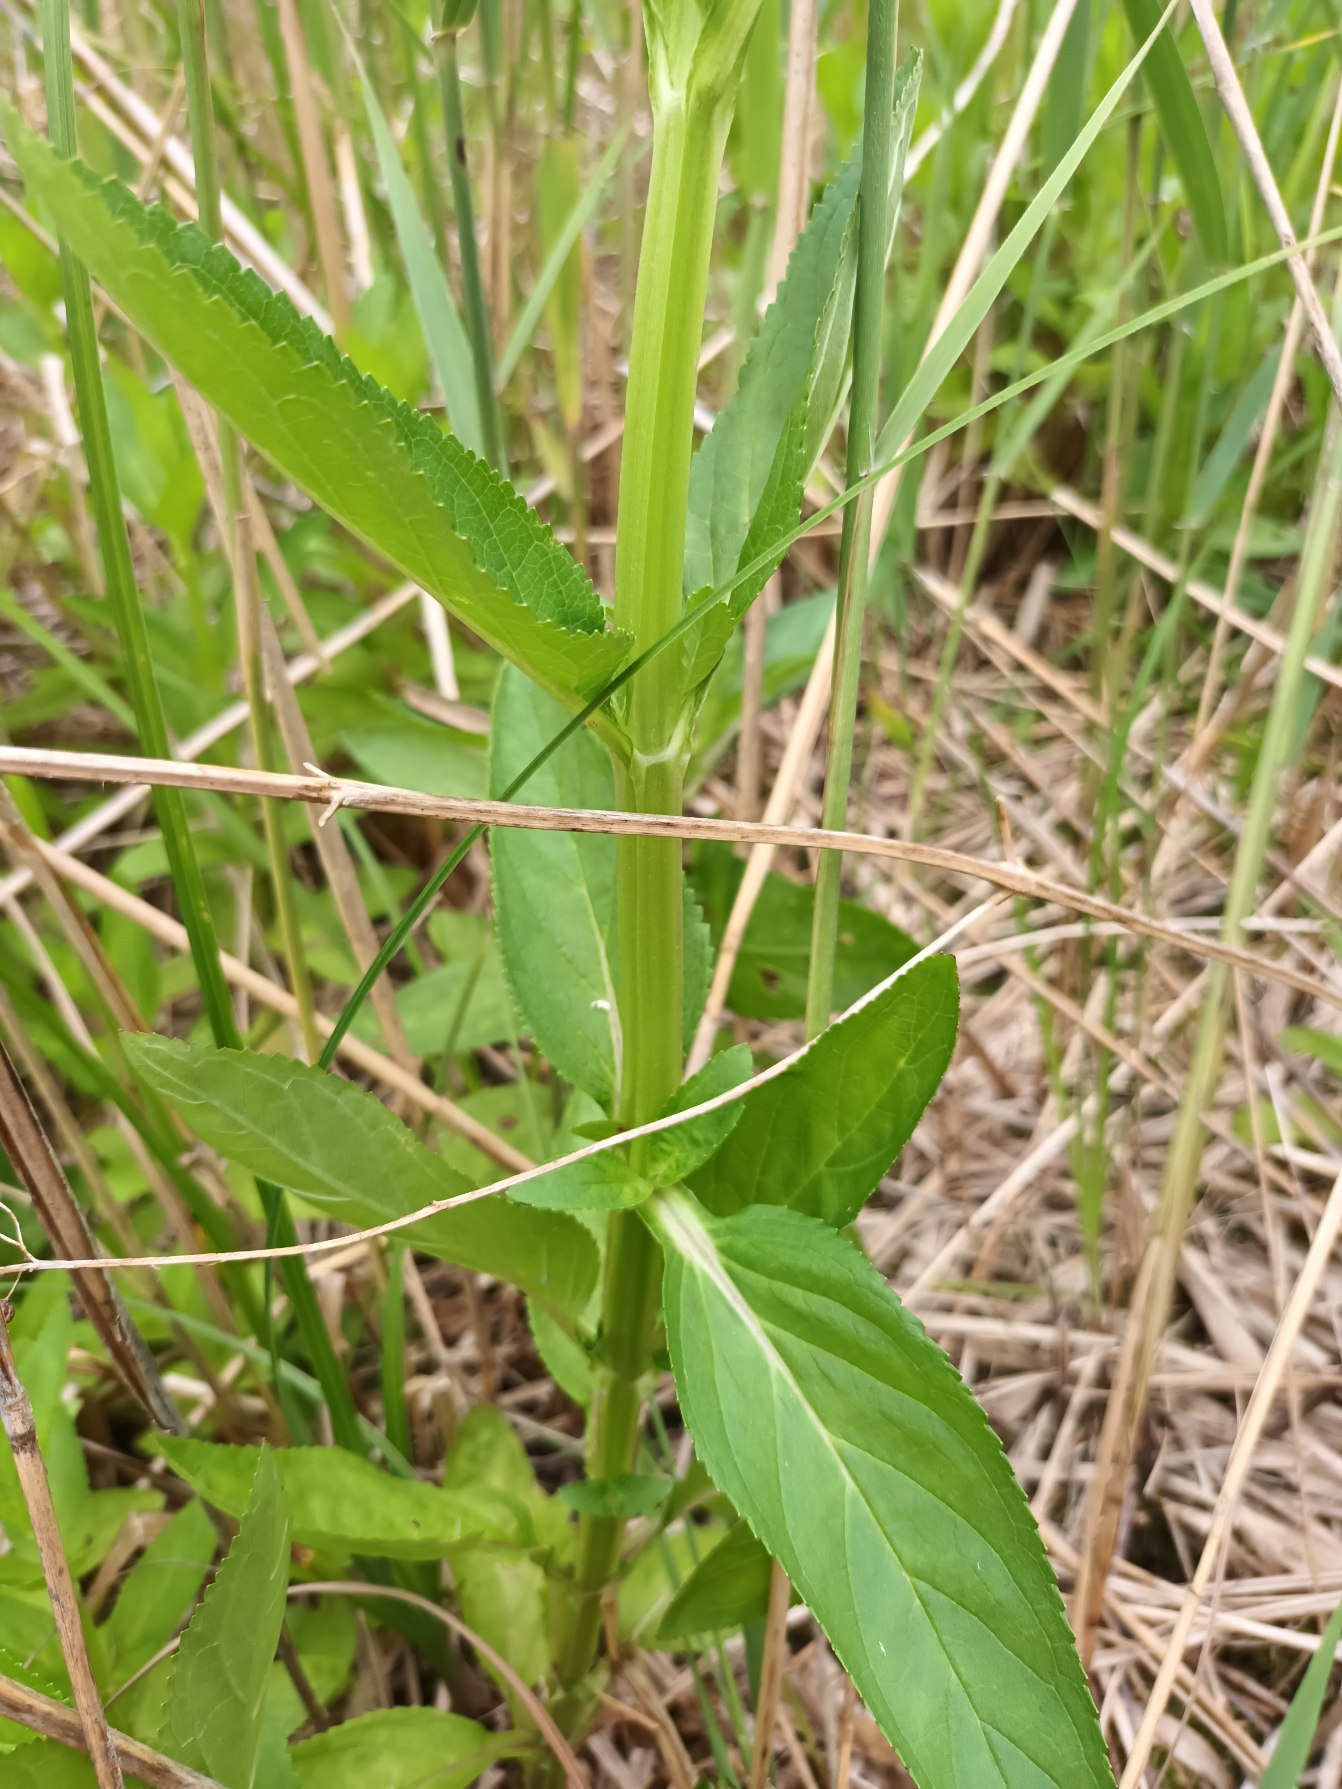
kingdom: Plantae
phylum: Tracheophyta
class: Magnoliopsida
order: Lamiales
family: Scrophulariaceae
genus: Scrophularia
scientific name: Scrophularia umbrosa
